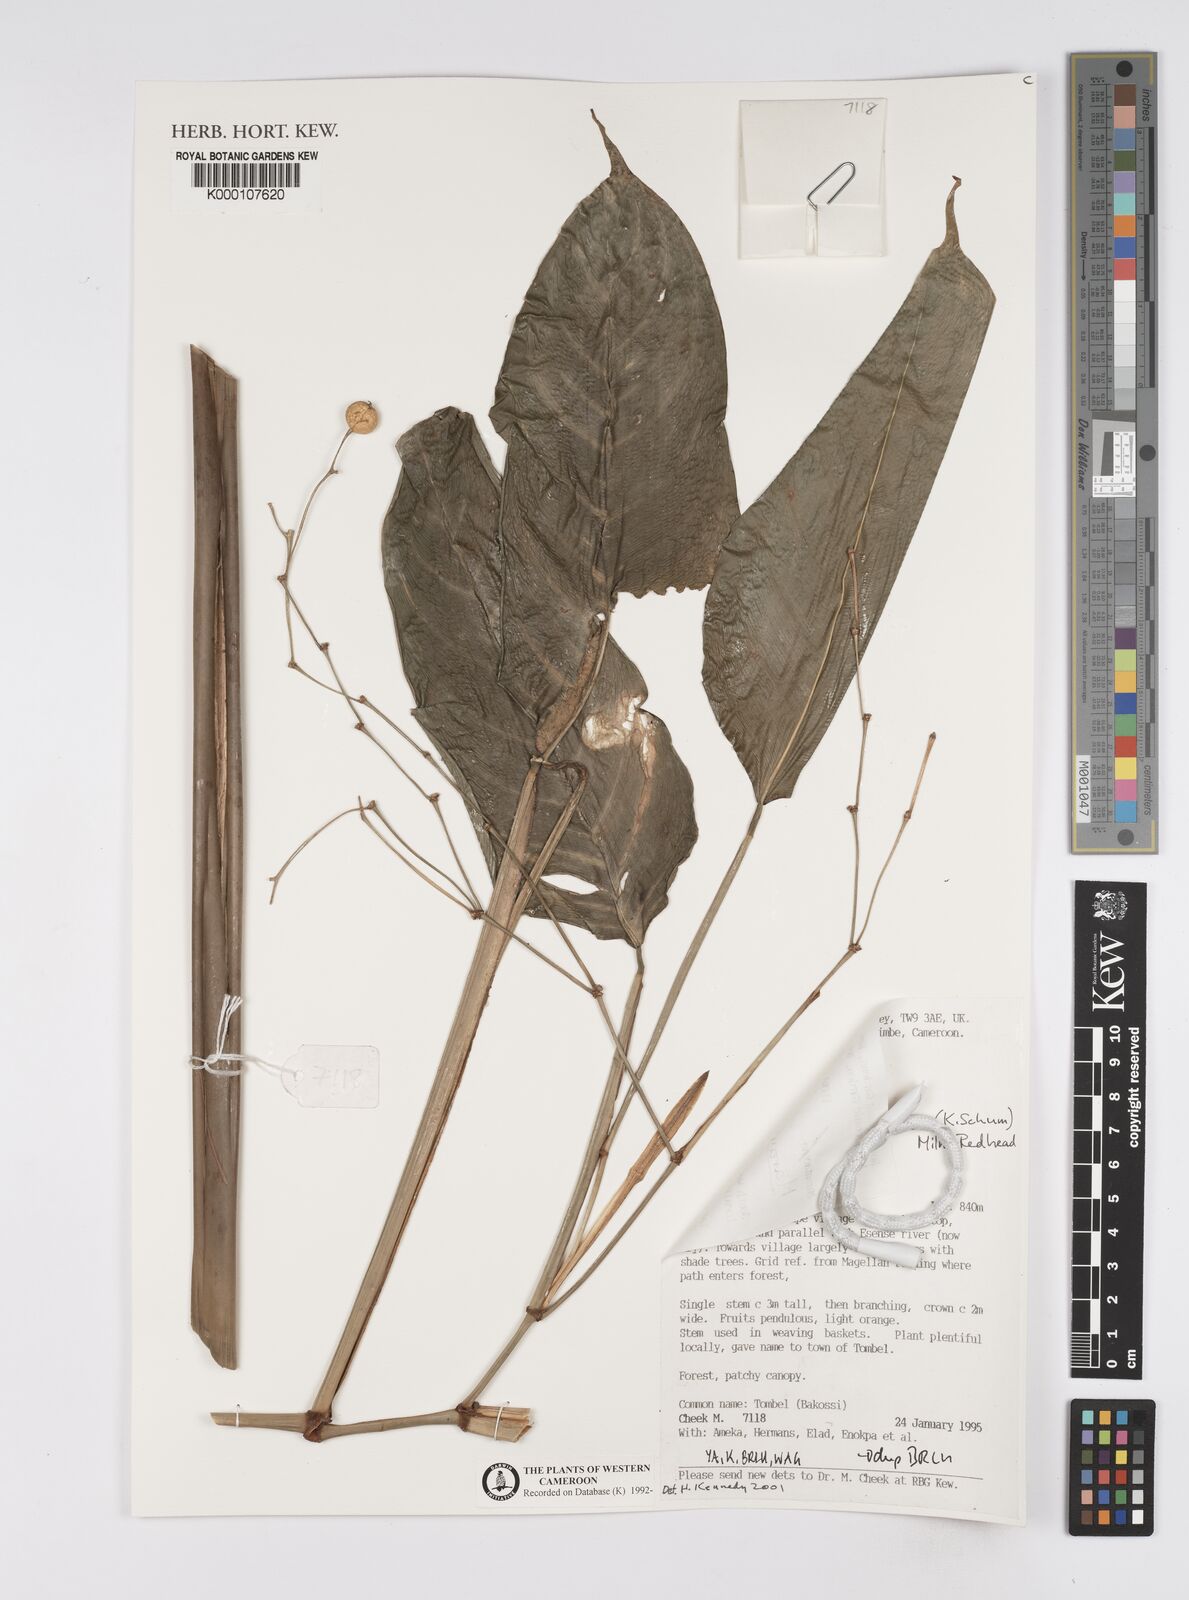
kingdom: Plantae
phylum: Tracheophyta
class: Liliopsida
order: Zingiberales
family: Marantaceae
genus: Marantochloa
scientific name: Marantochloa leucantha
